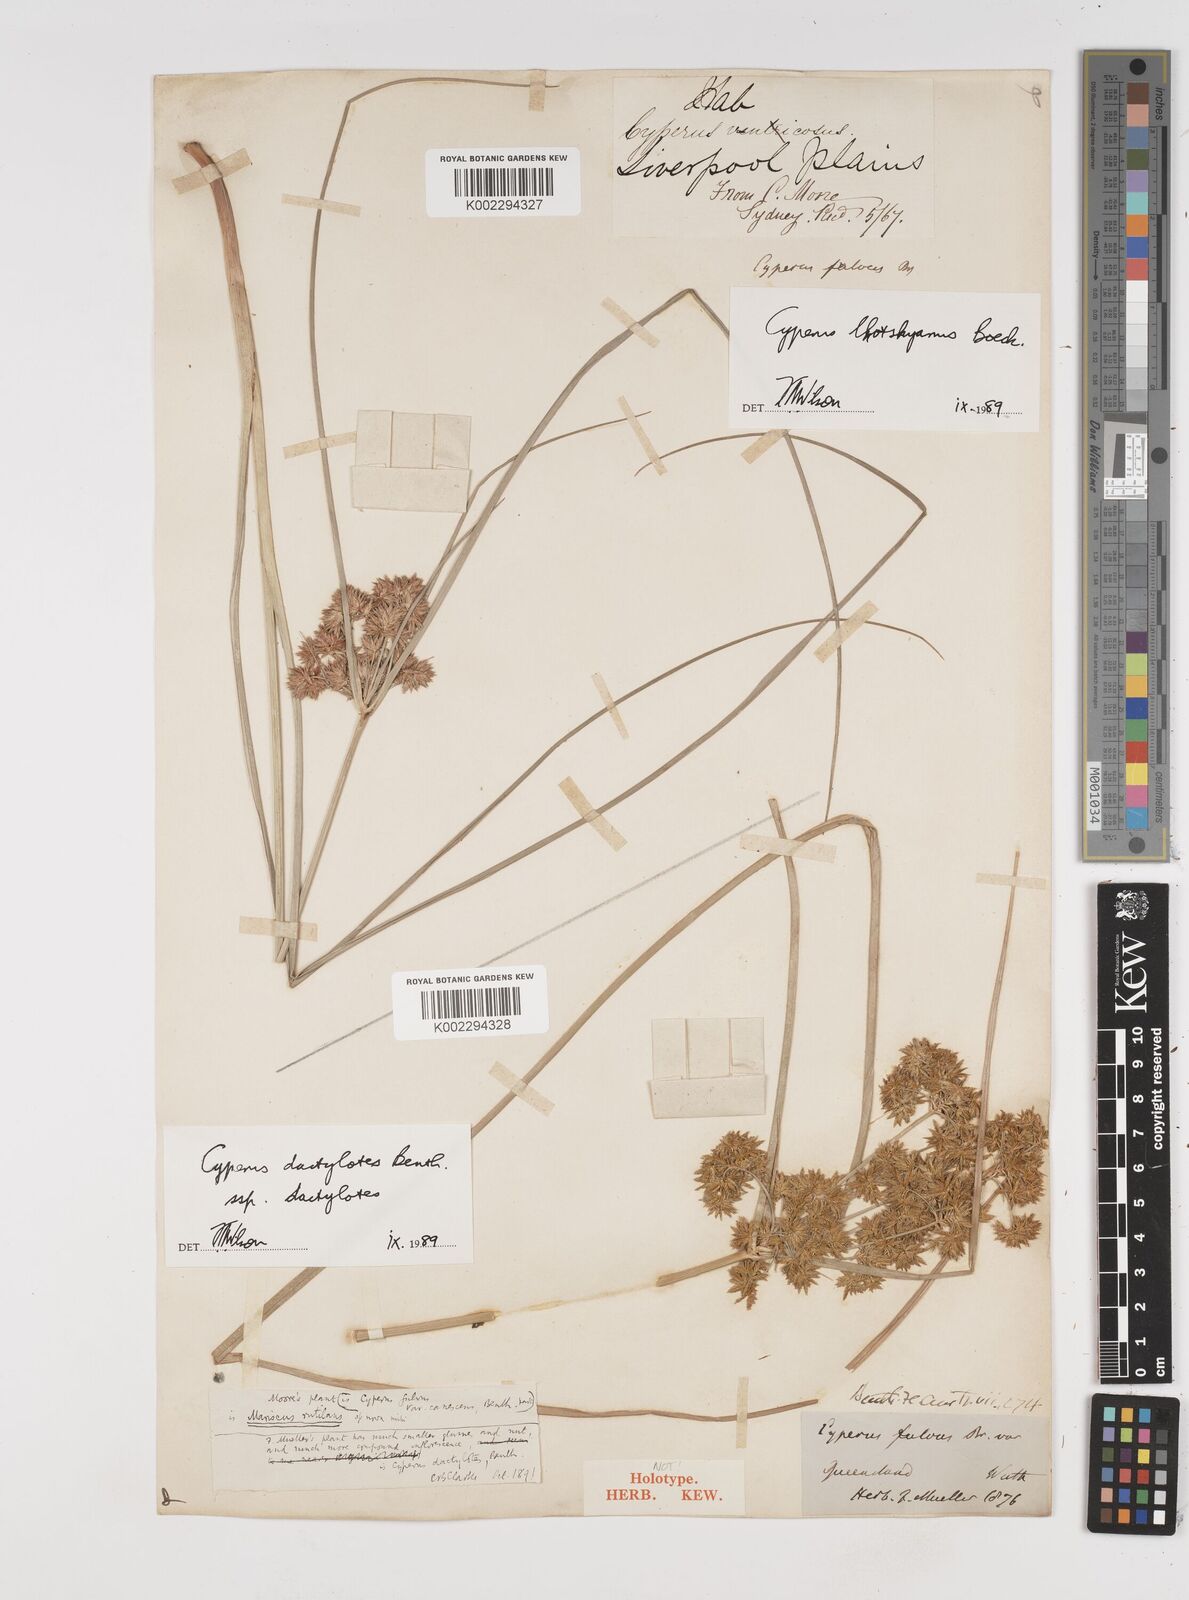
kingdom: Plantae
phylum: Tracheophyta
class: Liliopsida
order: Poales
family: Cyperaceae
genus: Cyperus
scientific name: Cyperus lhotskyanus
